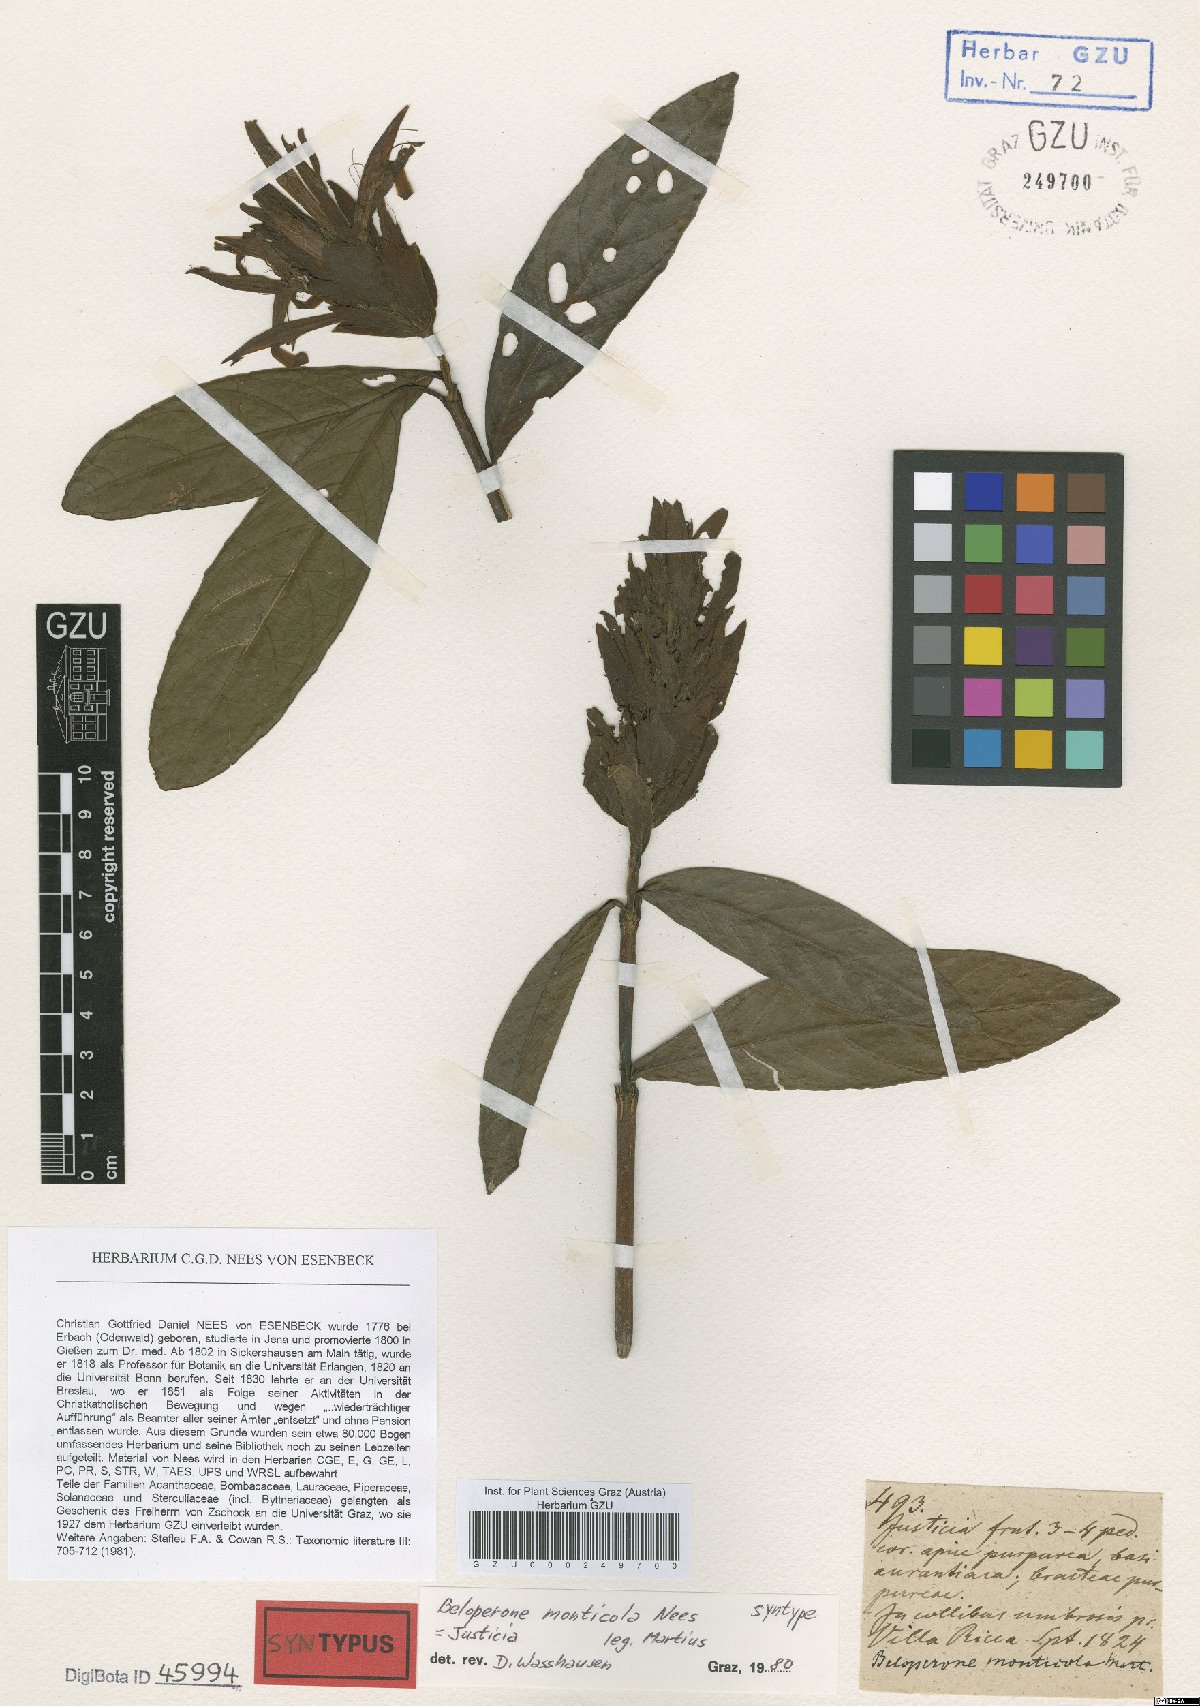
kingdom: Plantae
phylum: Tracheophyta
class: Magnoliopsida
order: Lamiales
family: Acanthaceae
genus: Lepidagathis
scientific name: Lepidagathis Lophostachys monticola
